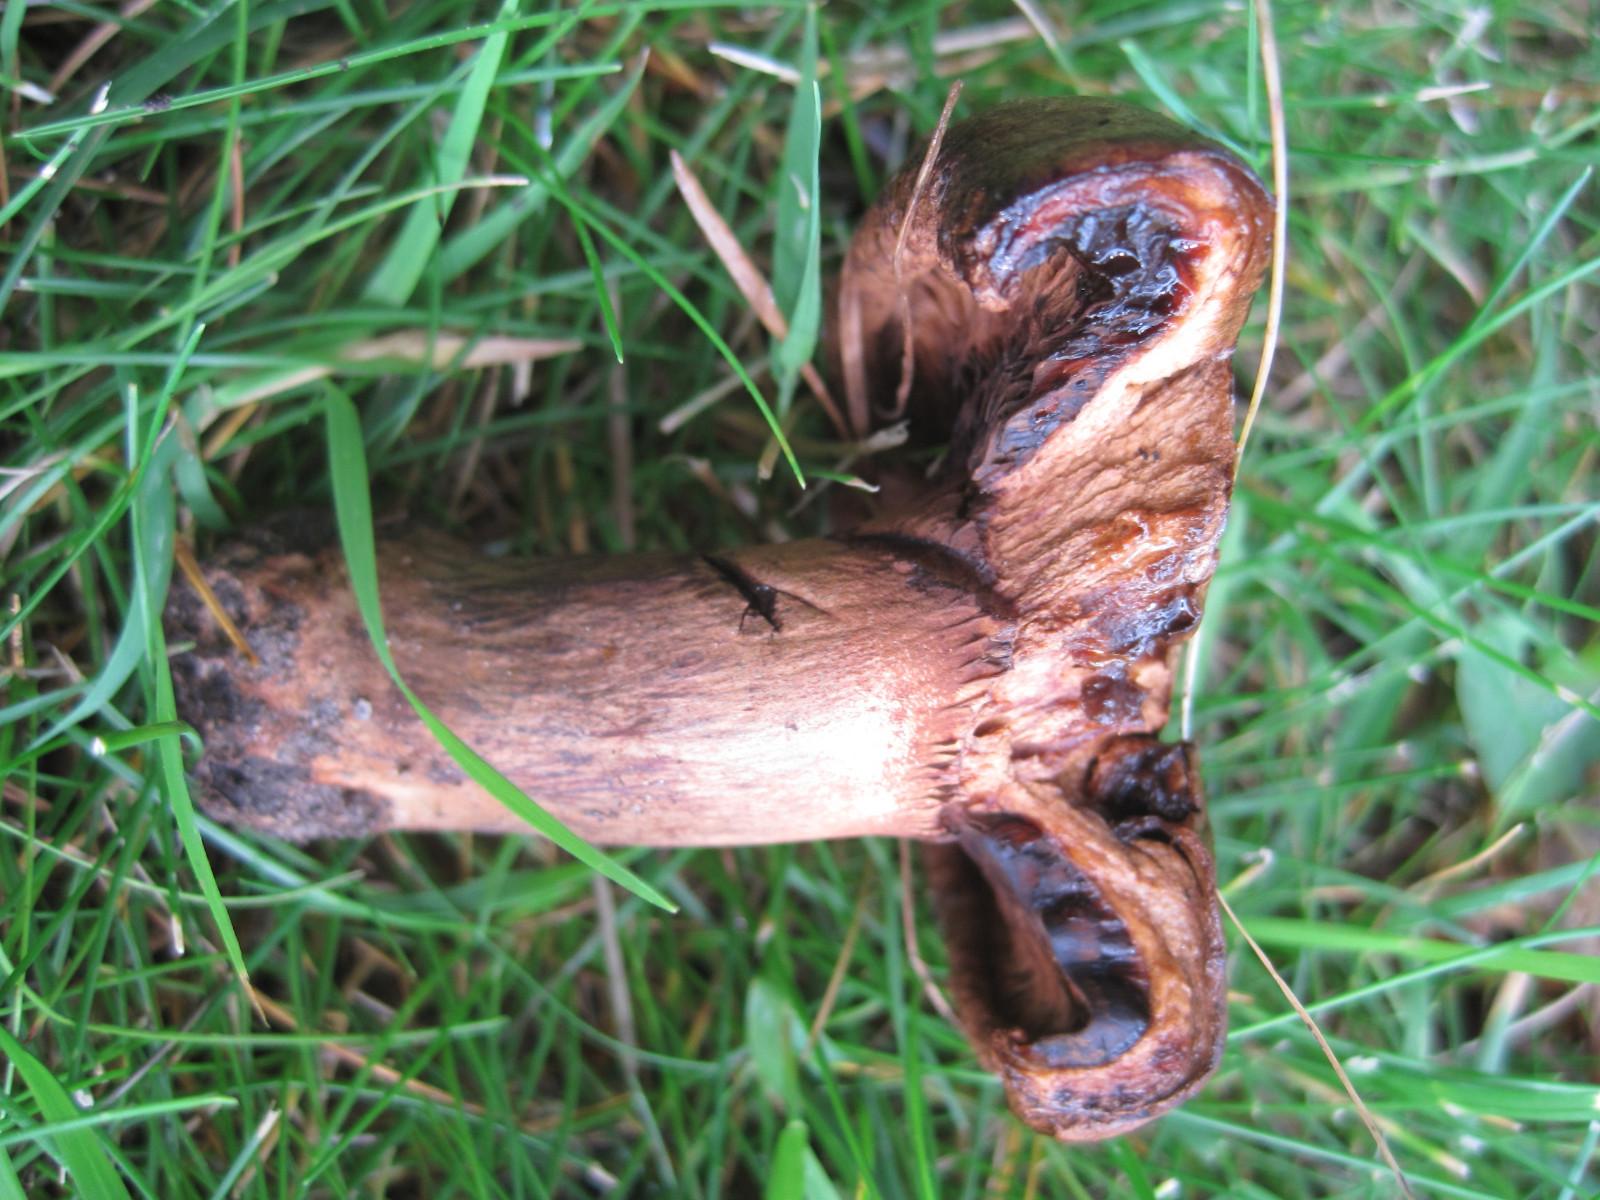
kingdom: Fungi
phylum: Basidiomycota
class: Agaricomycetes
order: Boletales
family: Paxillaceae
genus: Paxillus
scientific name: Paxillus obscurisporus
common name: mahognisporet netbladhat
